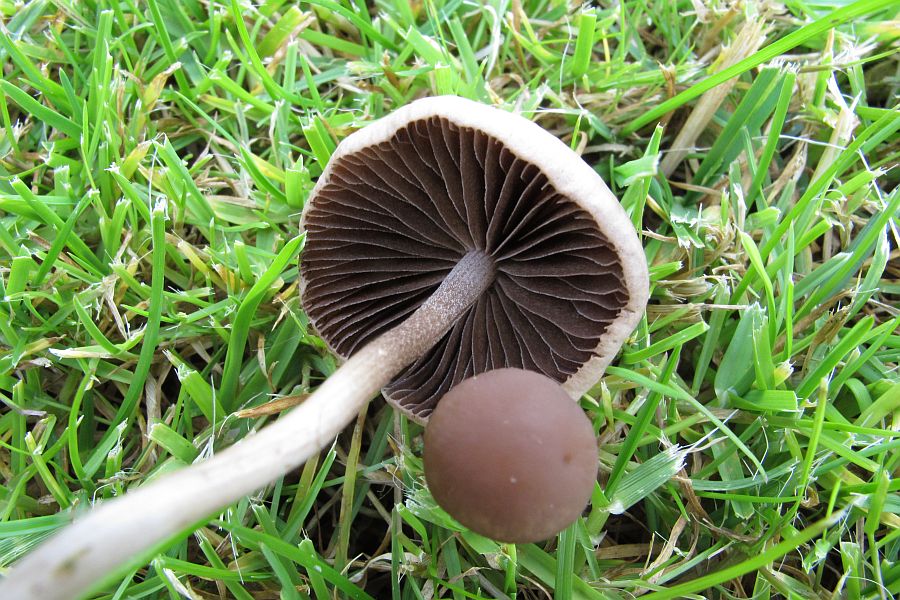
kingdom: Fungi
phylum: Basidiomycota
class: Agaricomycetes
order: Agaricales
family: Bolbitiaceae
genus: Panaeolina
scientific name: Panaeolina foenisecii
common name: høslætsvamp
